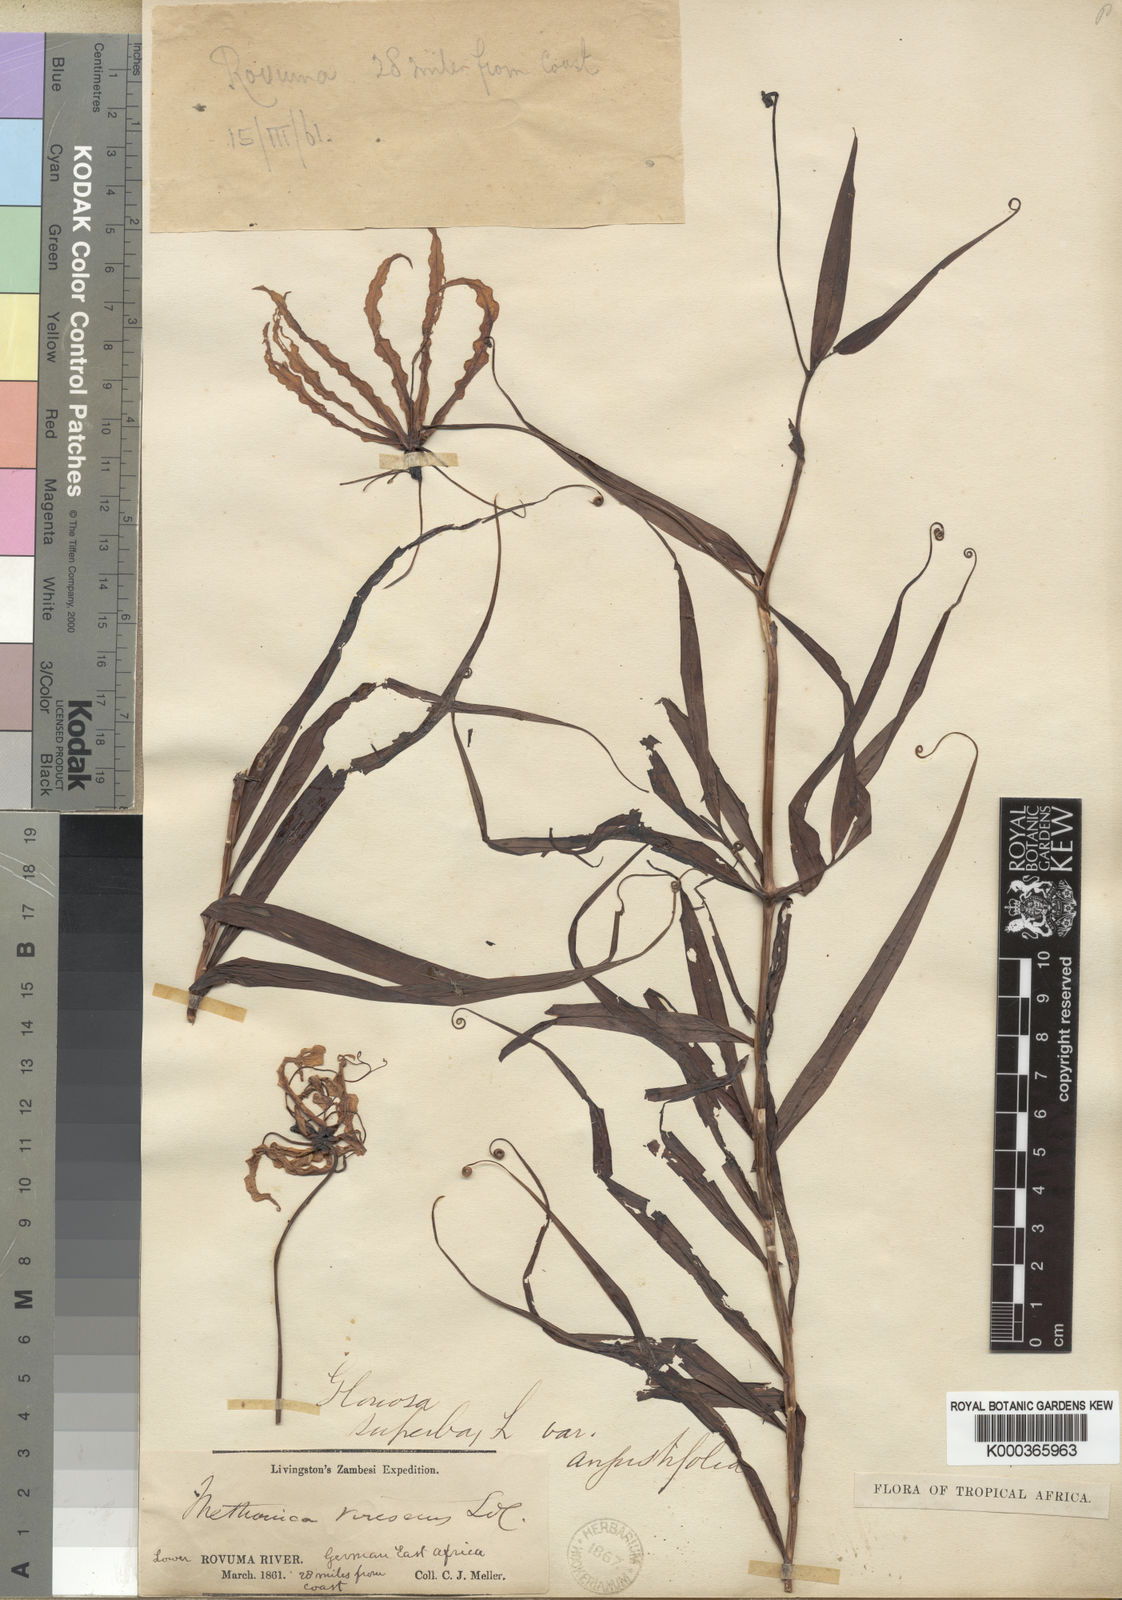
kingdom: Plantae
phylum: Tracheophyta
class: Liliopsida
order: Liliales
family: Colchicaceae
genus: Gloriosa
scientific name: Gloriosa superba
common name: Flame lily
